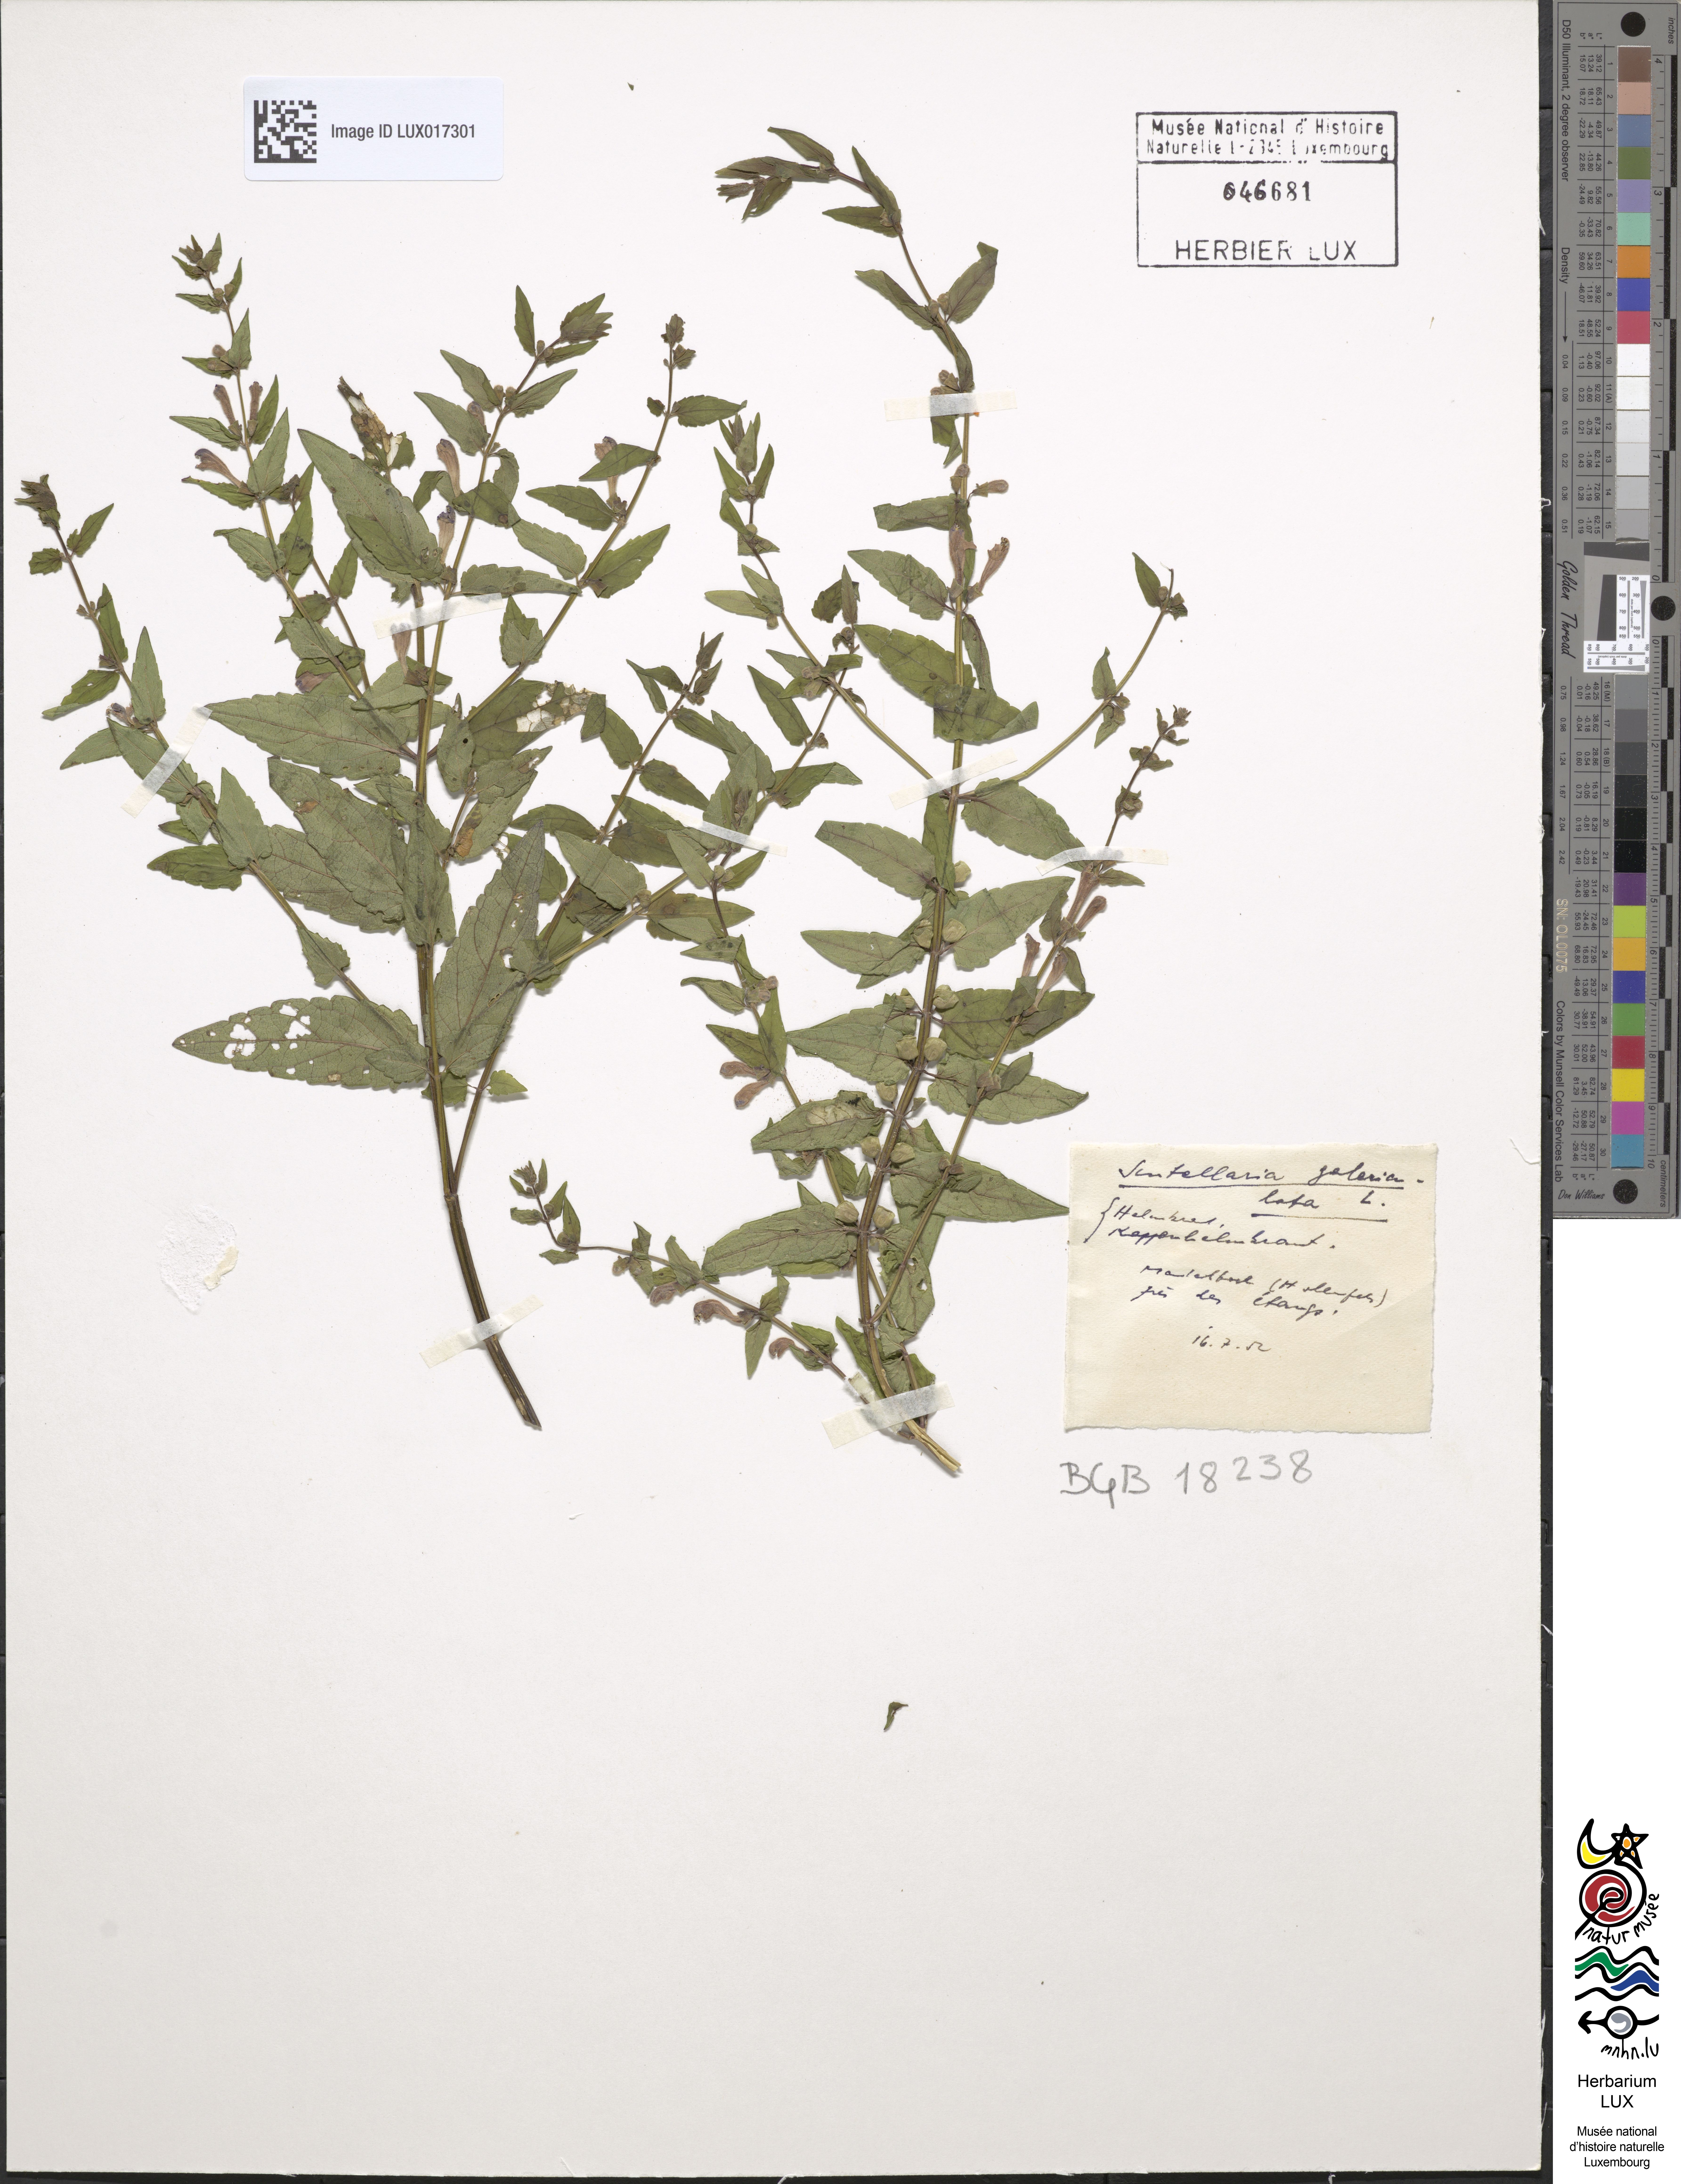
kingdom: Plantae
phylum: Tracheophyta
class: Magnoliopsida
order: Lamiales
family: Lamiaceae
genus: Scutellaria
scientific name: Scutellaria galericulata
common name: Skullcap
